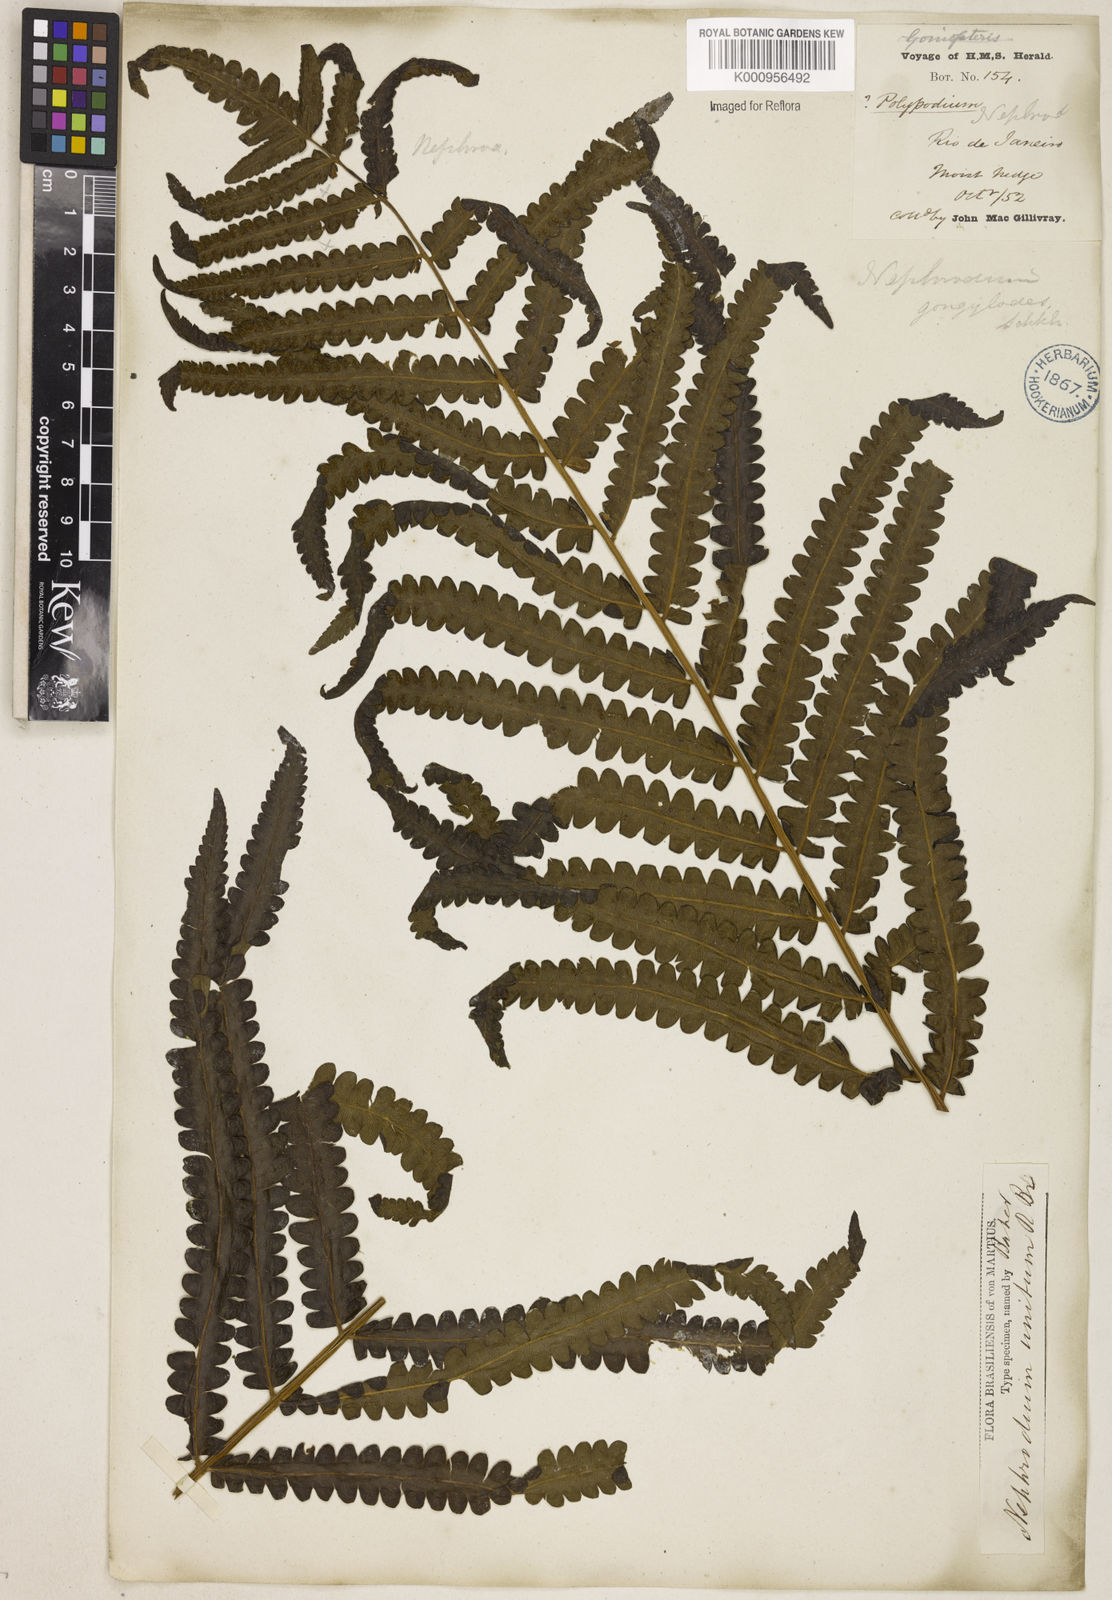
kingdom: Plantae
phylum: Tracheophyta
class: Polypodiopsida
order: Polypodiales
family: Thelypteridaceae
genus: Cyclosorus
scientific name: Cyclosorus interruptus
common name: Neke fern
